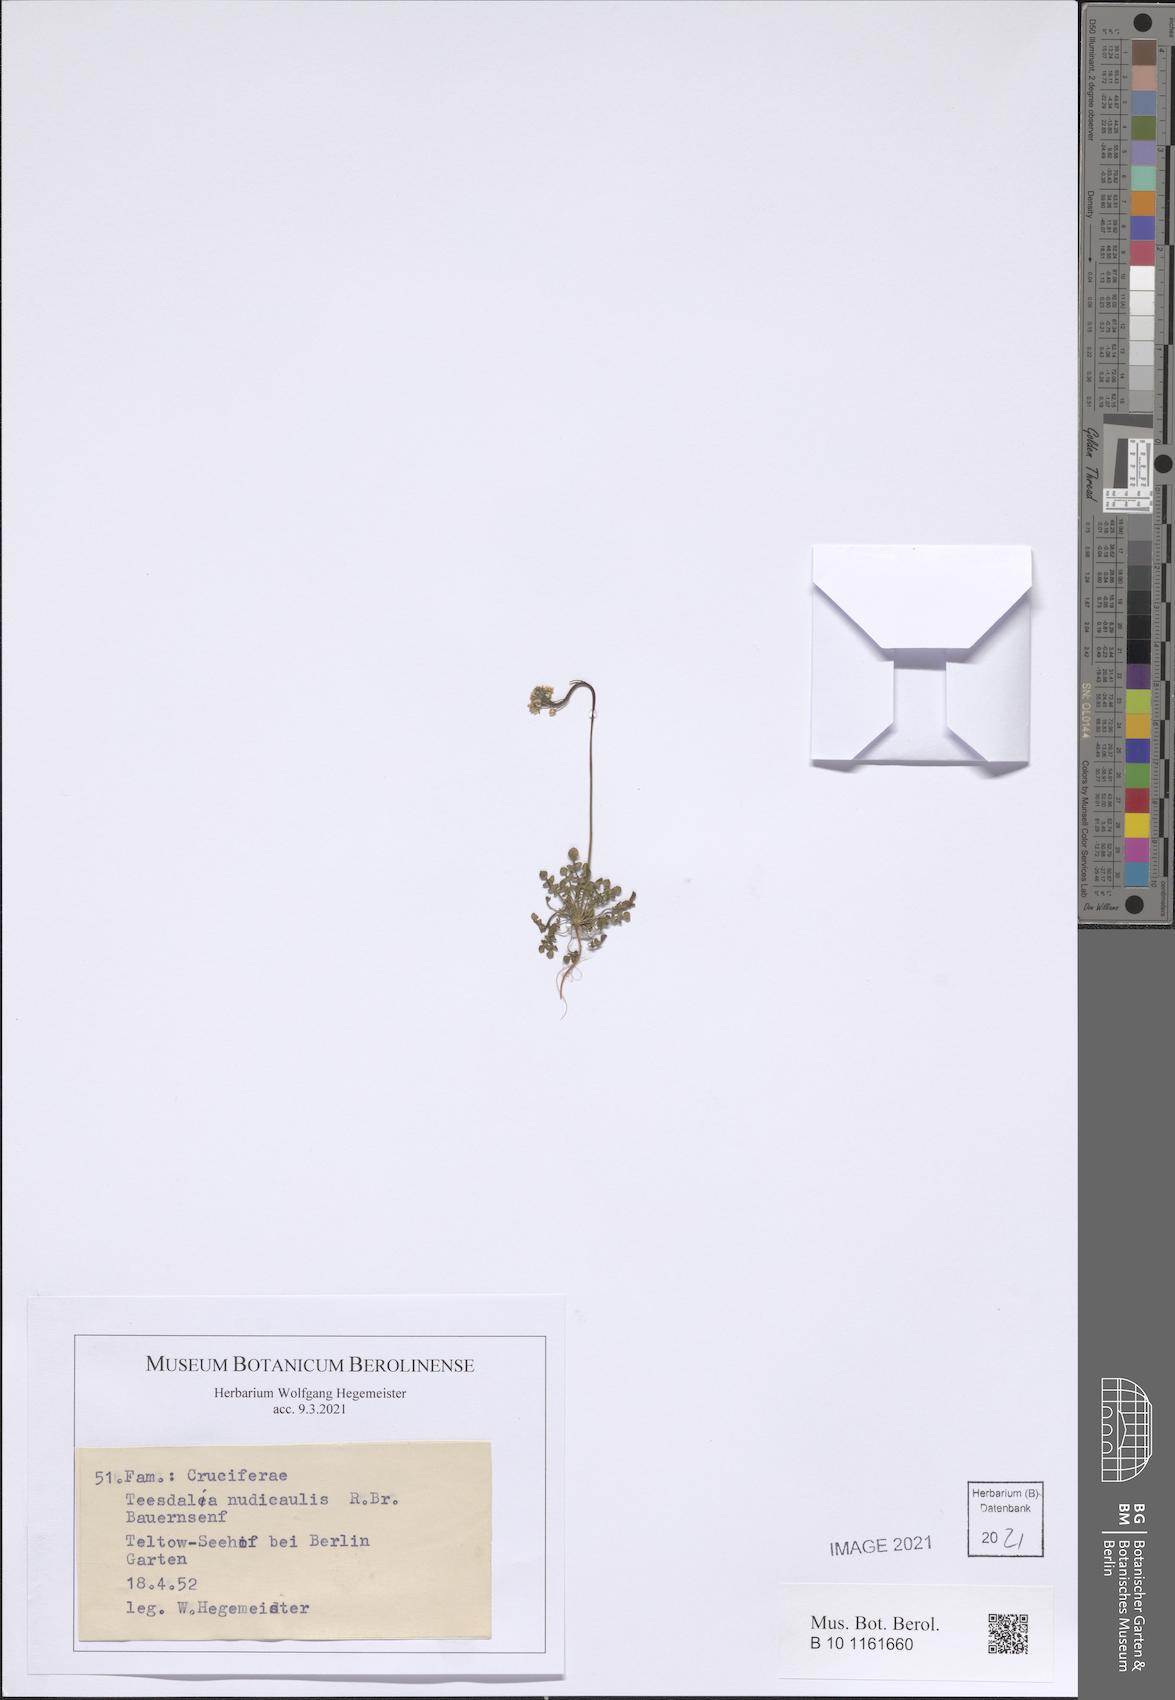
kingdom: Plantae
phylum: Tracheophyta
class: Magnoliopsida
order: Brassicales
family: Brassicaceae
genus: Teesdalia
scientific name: Teesdalia nudicaulis
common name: Shepherd's cress
